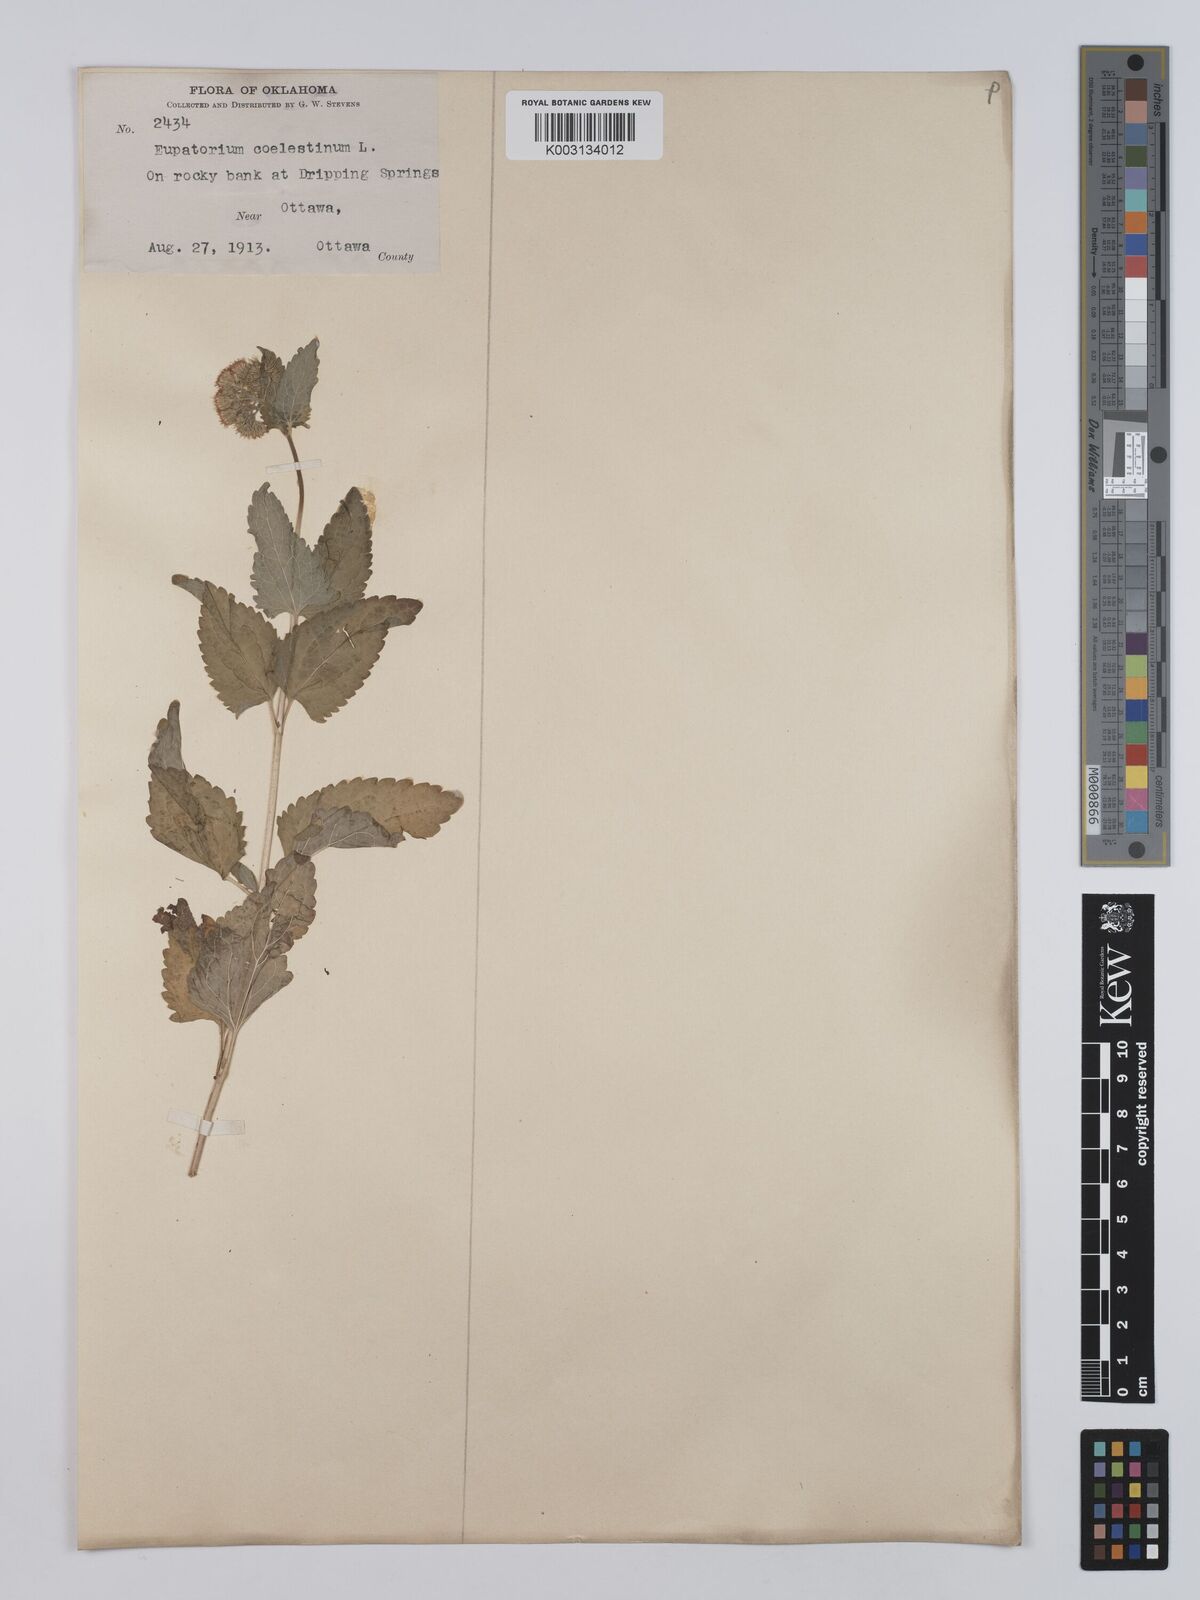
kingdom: Plantae
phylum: Tracheophyta
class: Magnoliopsida
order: Asterales
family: Asteraceae
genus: Conoclinium
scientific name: Conoclinium coelestinum
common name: Blue mistflower
